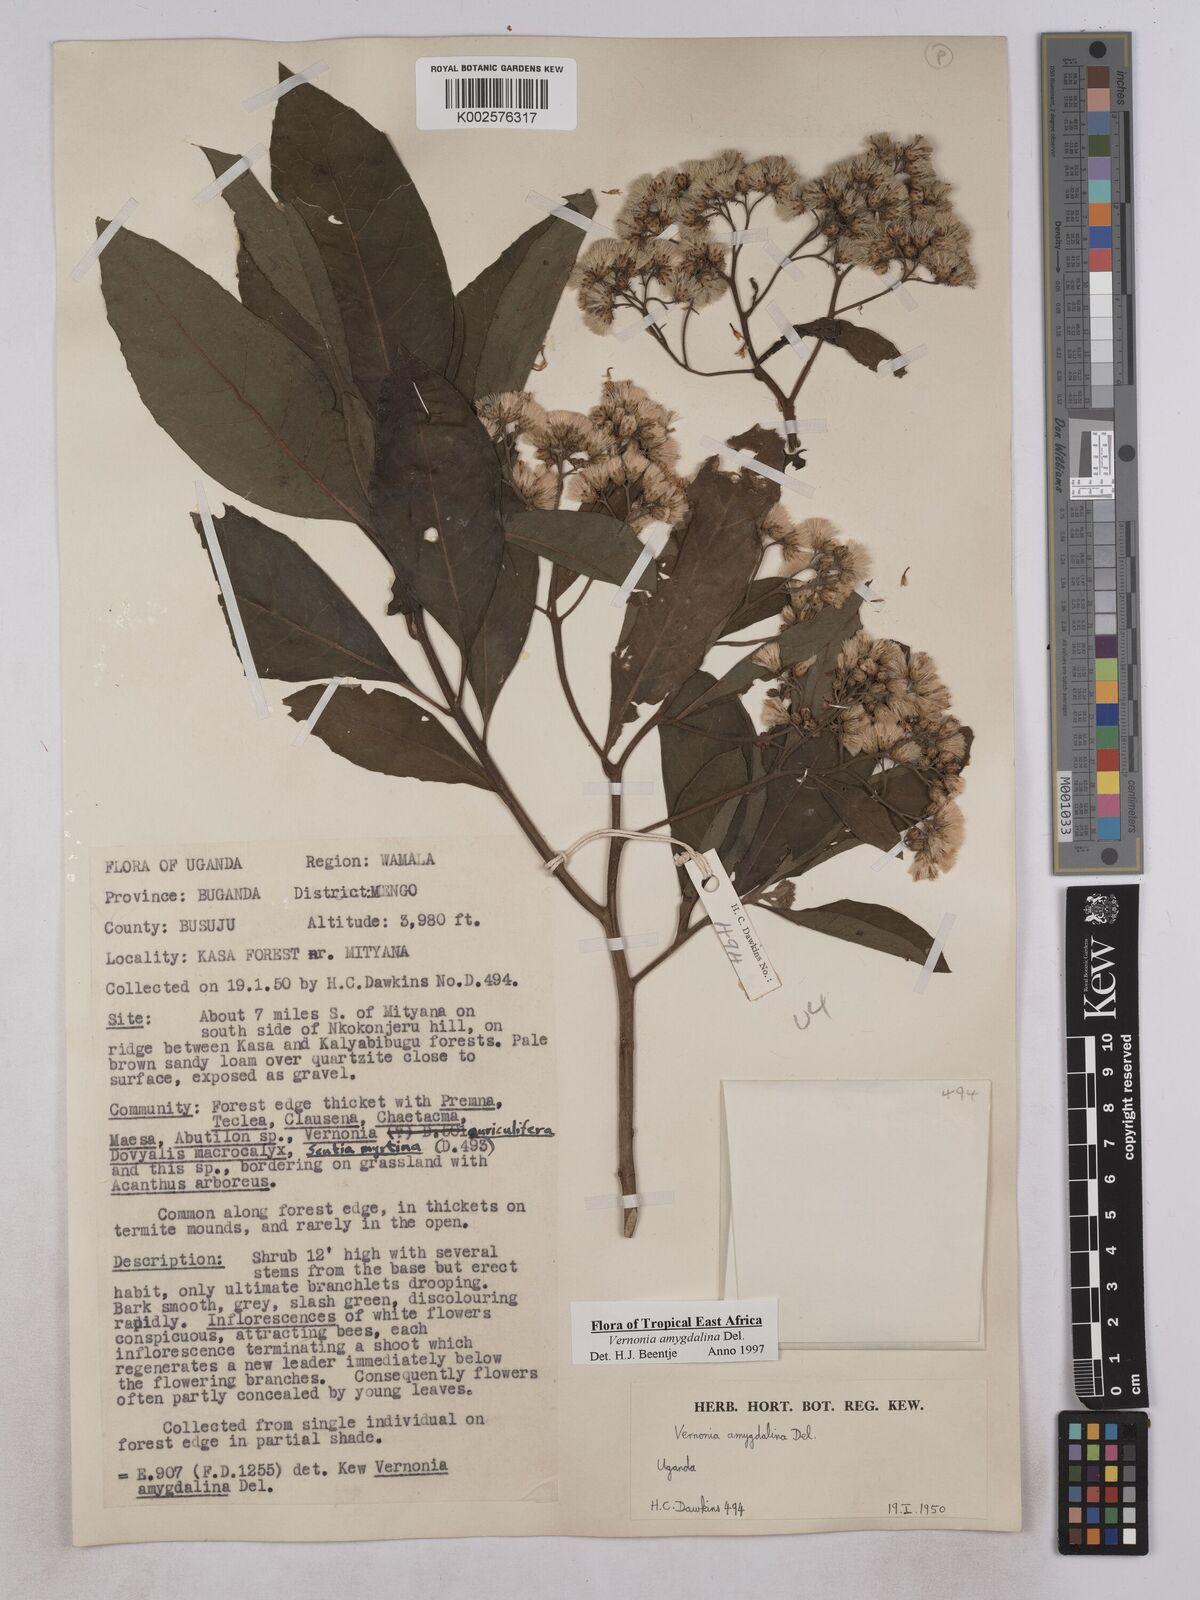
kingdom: Plantae
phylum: Tracheophyta
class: Magnoliopsida
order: Asterales
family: Asteraceae
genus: Gymnanthemum
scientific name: Gymnanthemum amygdalinum
